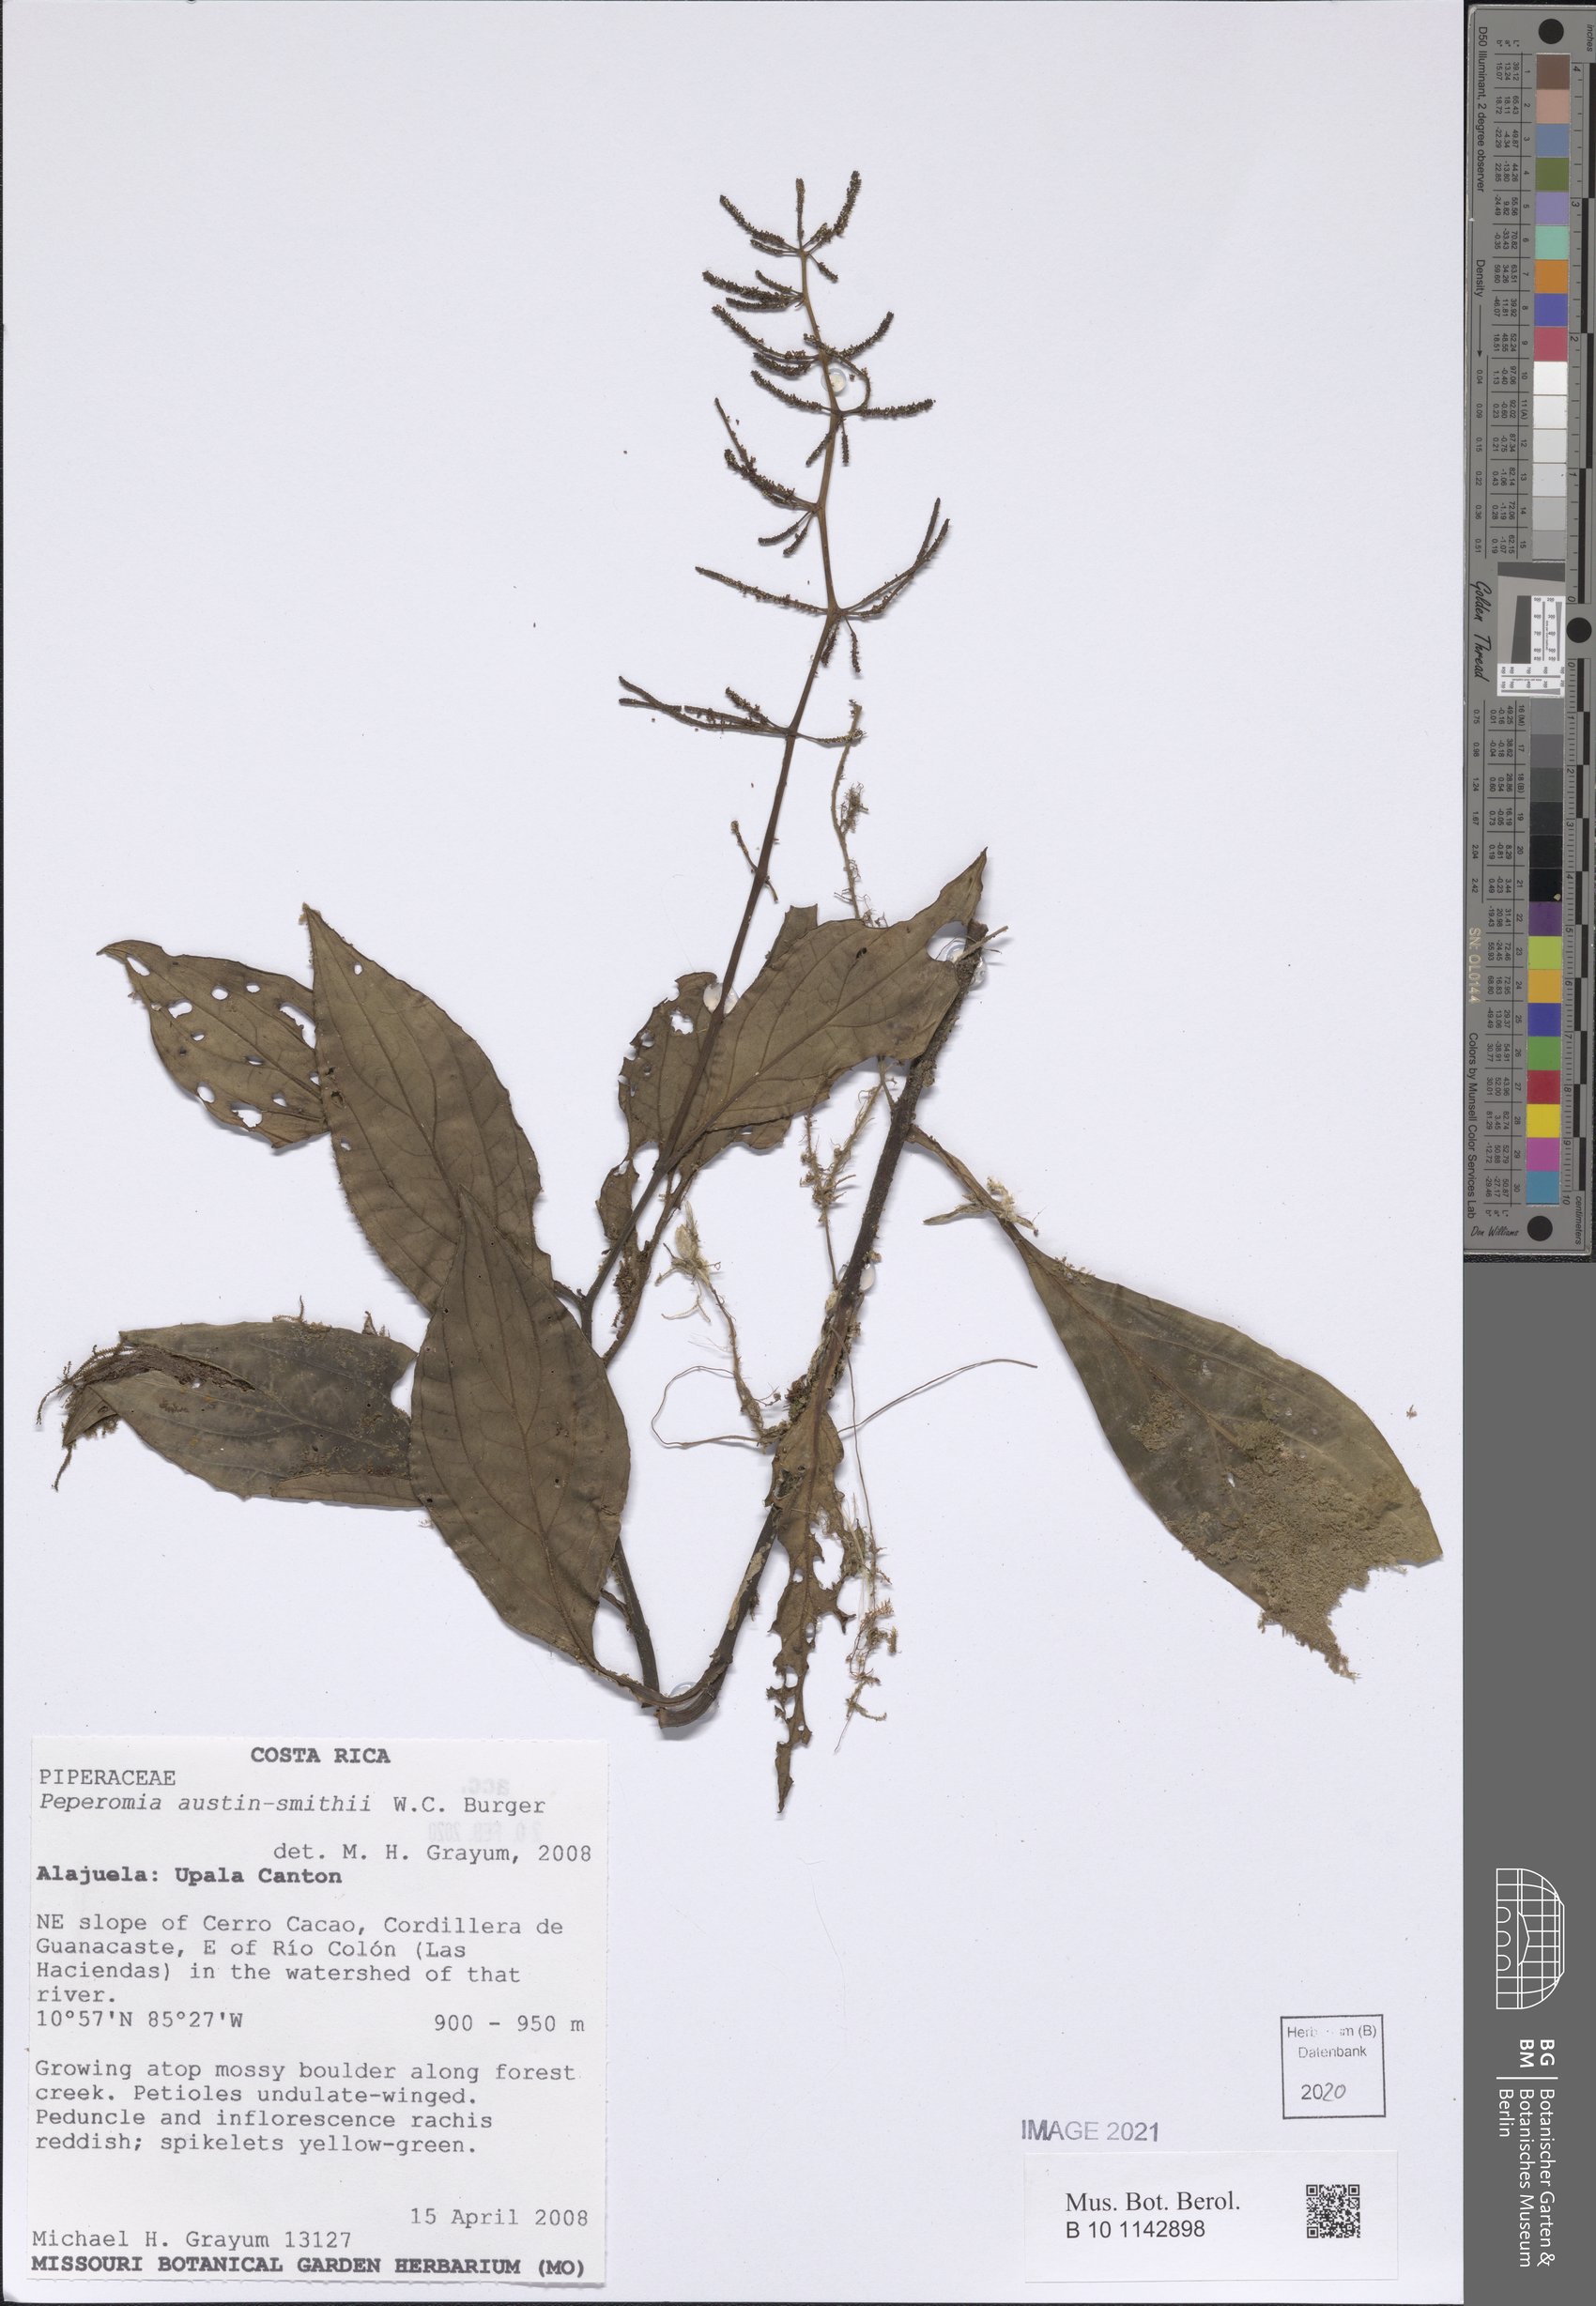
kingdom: Plantae
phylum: Tracheophyta
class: Magnoliopsida
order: Piperales
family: Piperaceae
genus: Peperomia
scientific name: Peperomia austin-smithii
